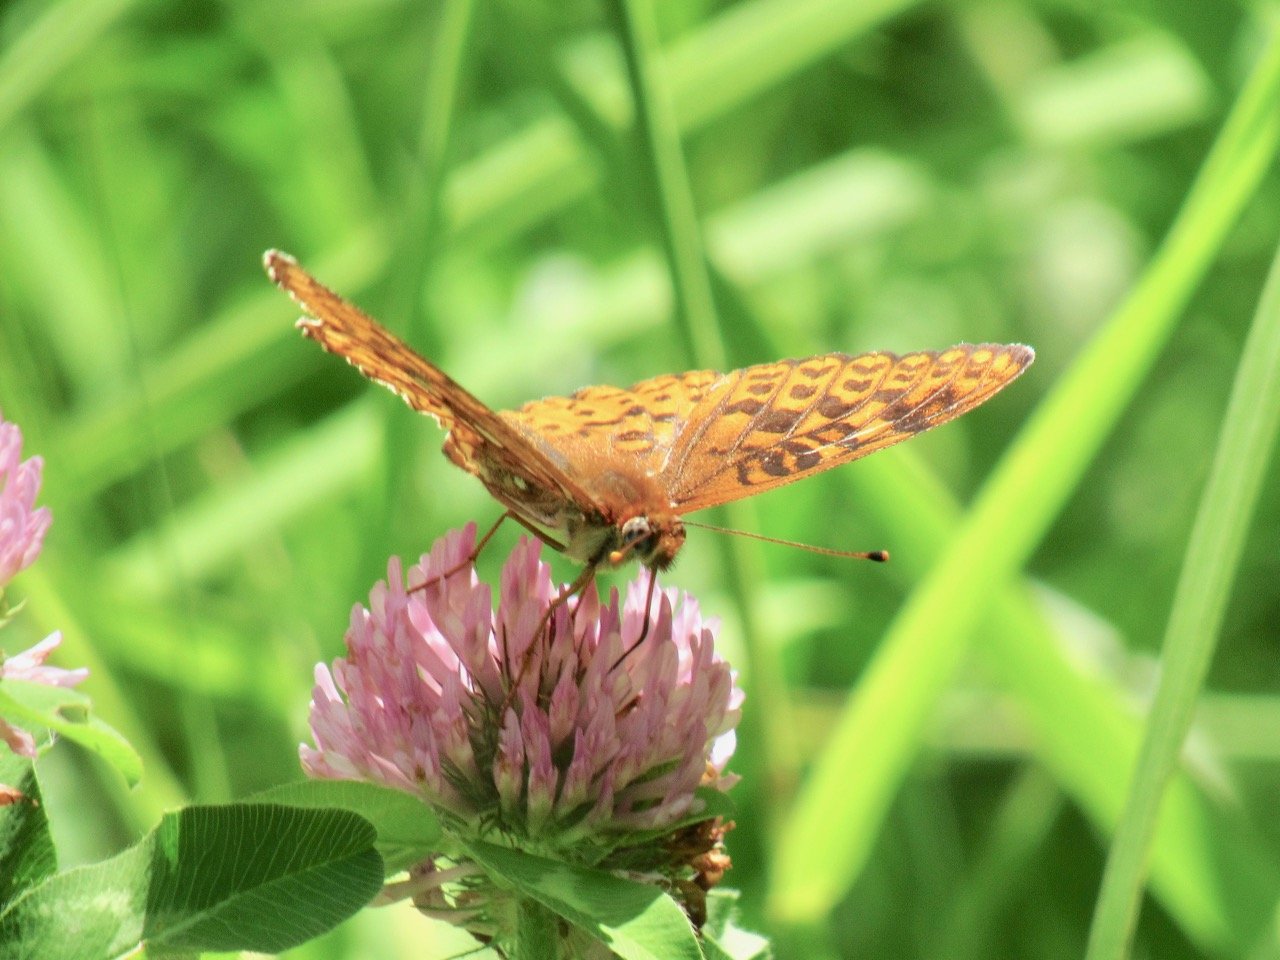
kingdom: Animalia
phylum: Arthropoda
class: Insecta
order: Lepidoptera
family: Nymphalidae
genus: Speyeria
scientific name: Speyeria atlantis
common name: Atlantis Fritillary
